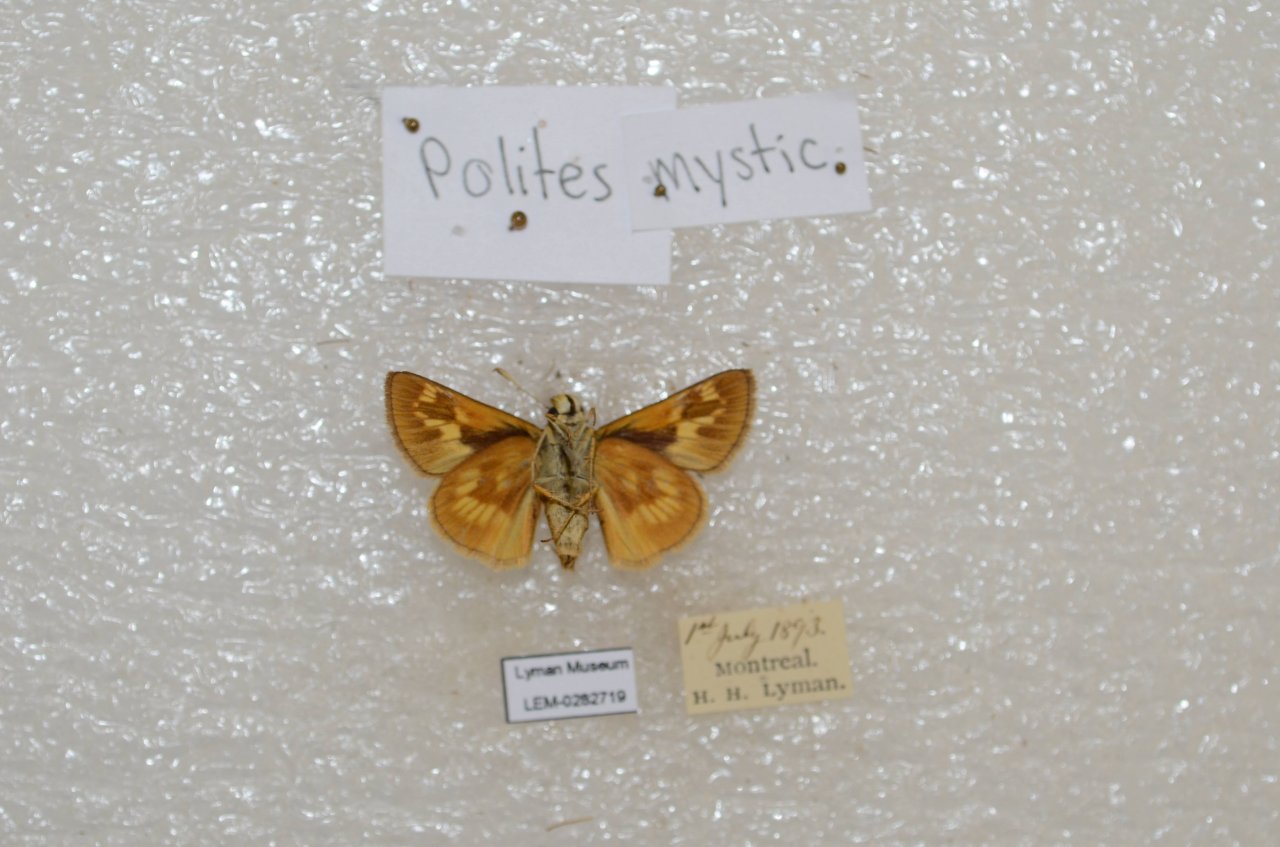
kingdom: Animalia
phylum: Arthropoda
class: Insecta
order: Lepidoptera
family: Hesperiidae
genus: Polites
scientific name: Polites
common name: Long Dash Skipper
